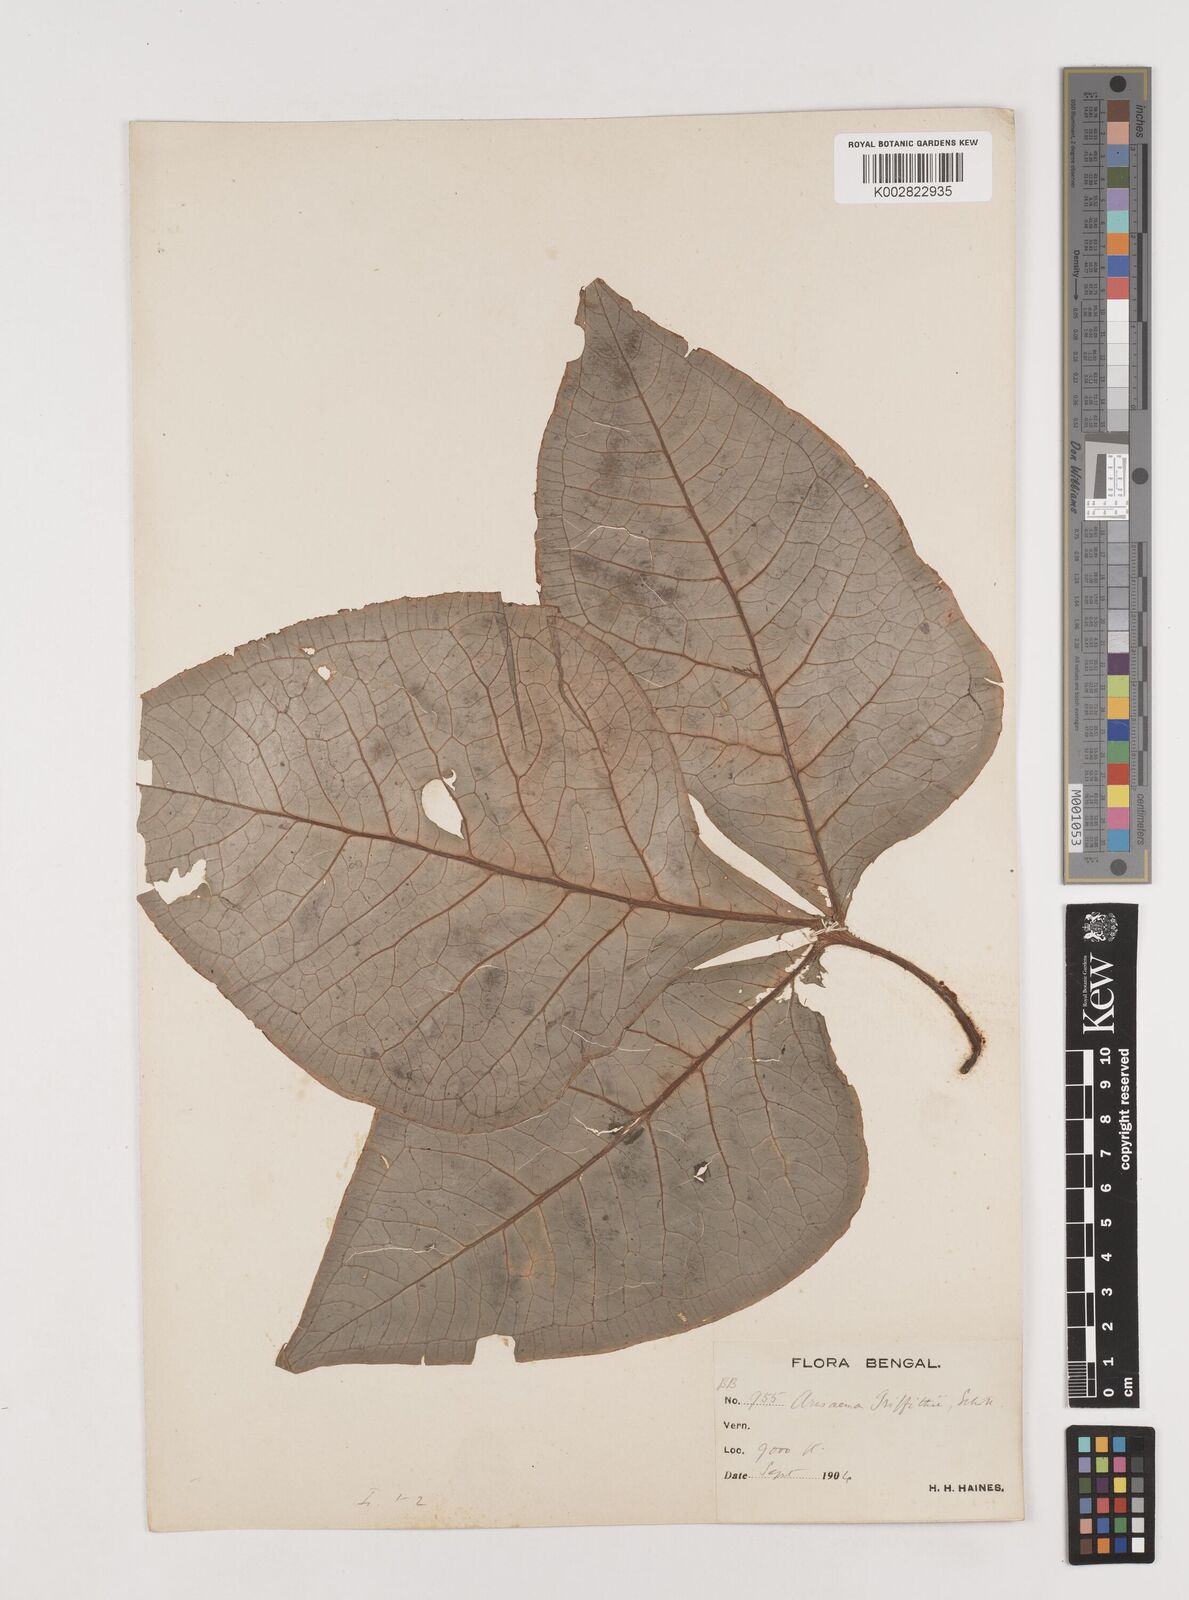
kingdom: Plantae
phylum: Tracheophyta
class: Liliopsida
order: Alismatales
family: Araceae
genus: Arisaema
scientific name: Arisaema griffithii
